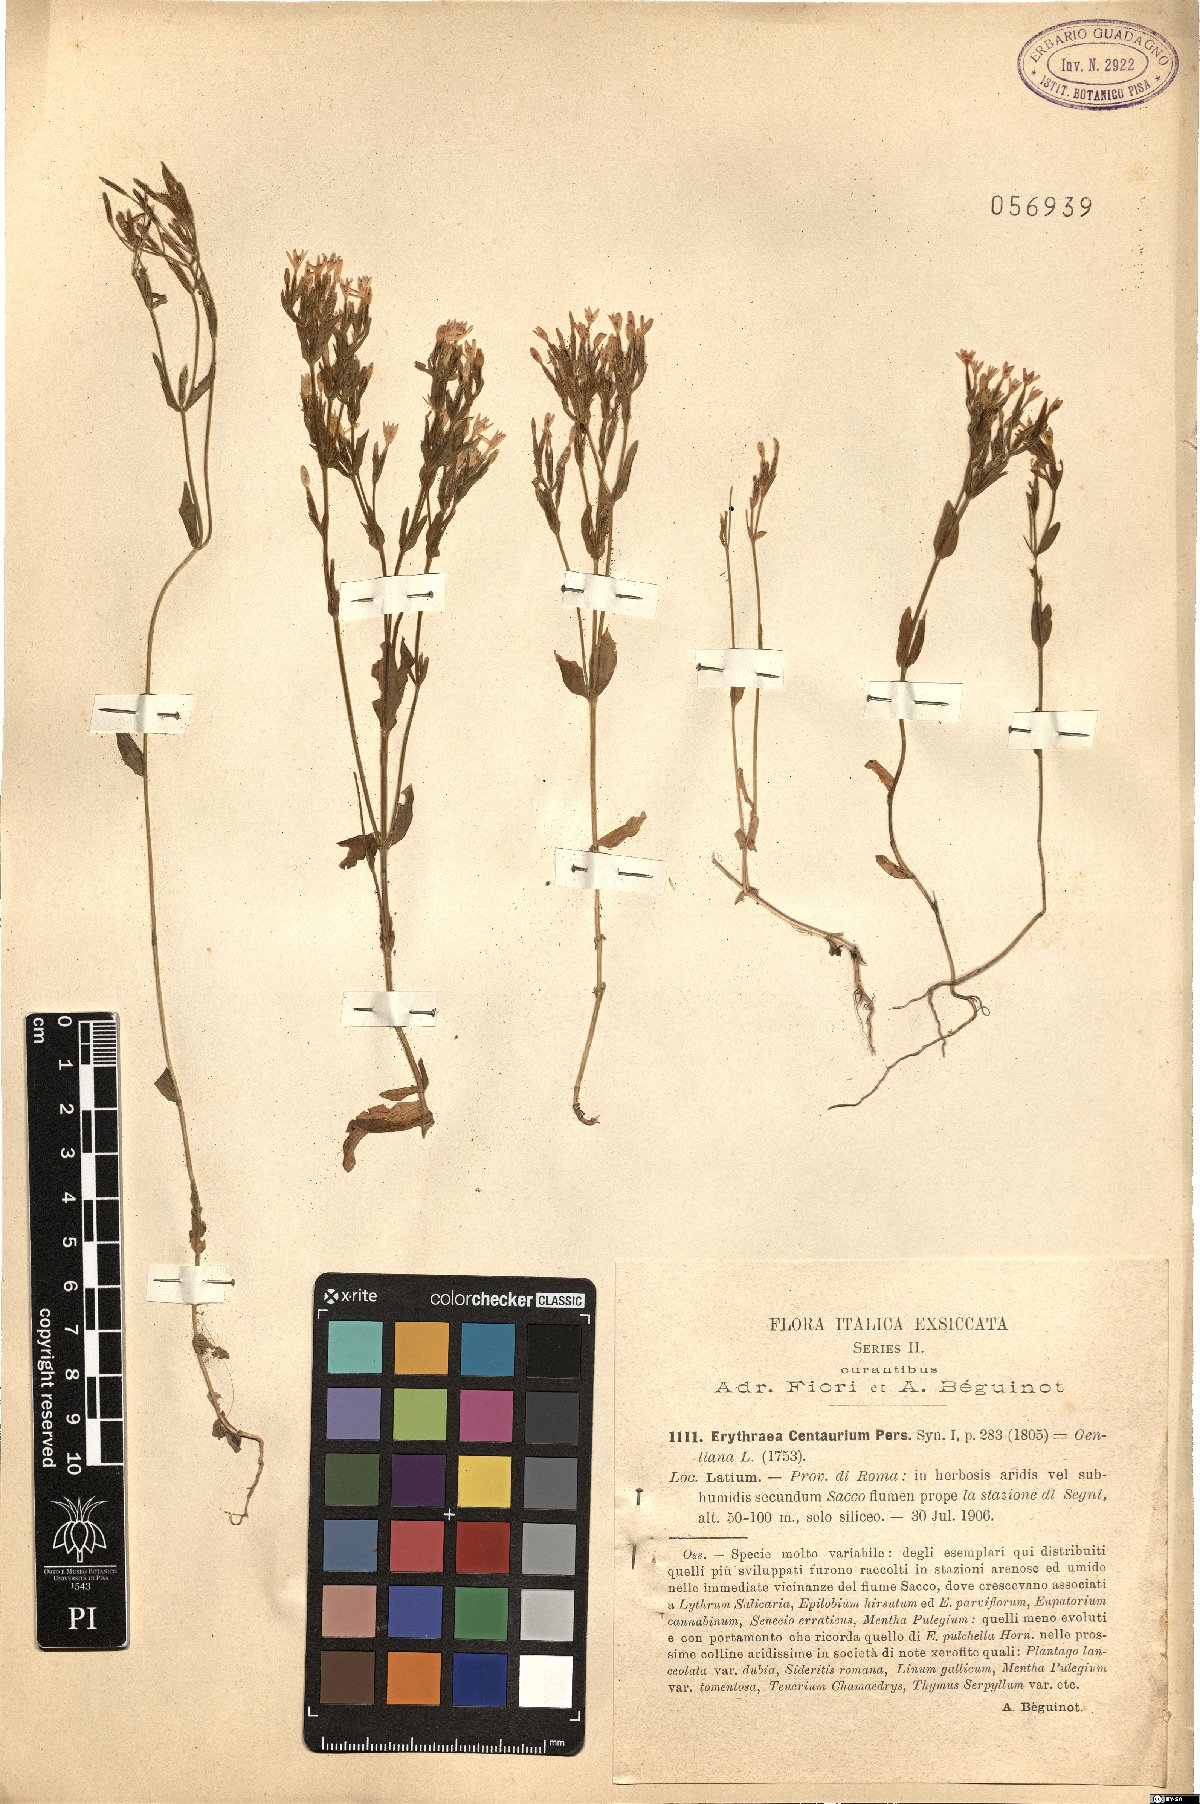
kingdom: Plantae
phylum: Tracheophyta
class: Magnoliopsida
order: Gentianales
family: Gentianaceae
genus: Centaurium
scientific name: Centaurium erythraea
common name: Common centaury
